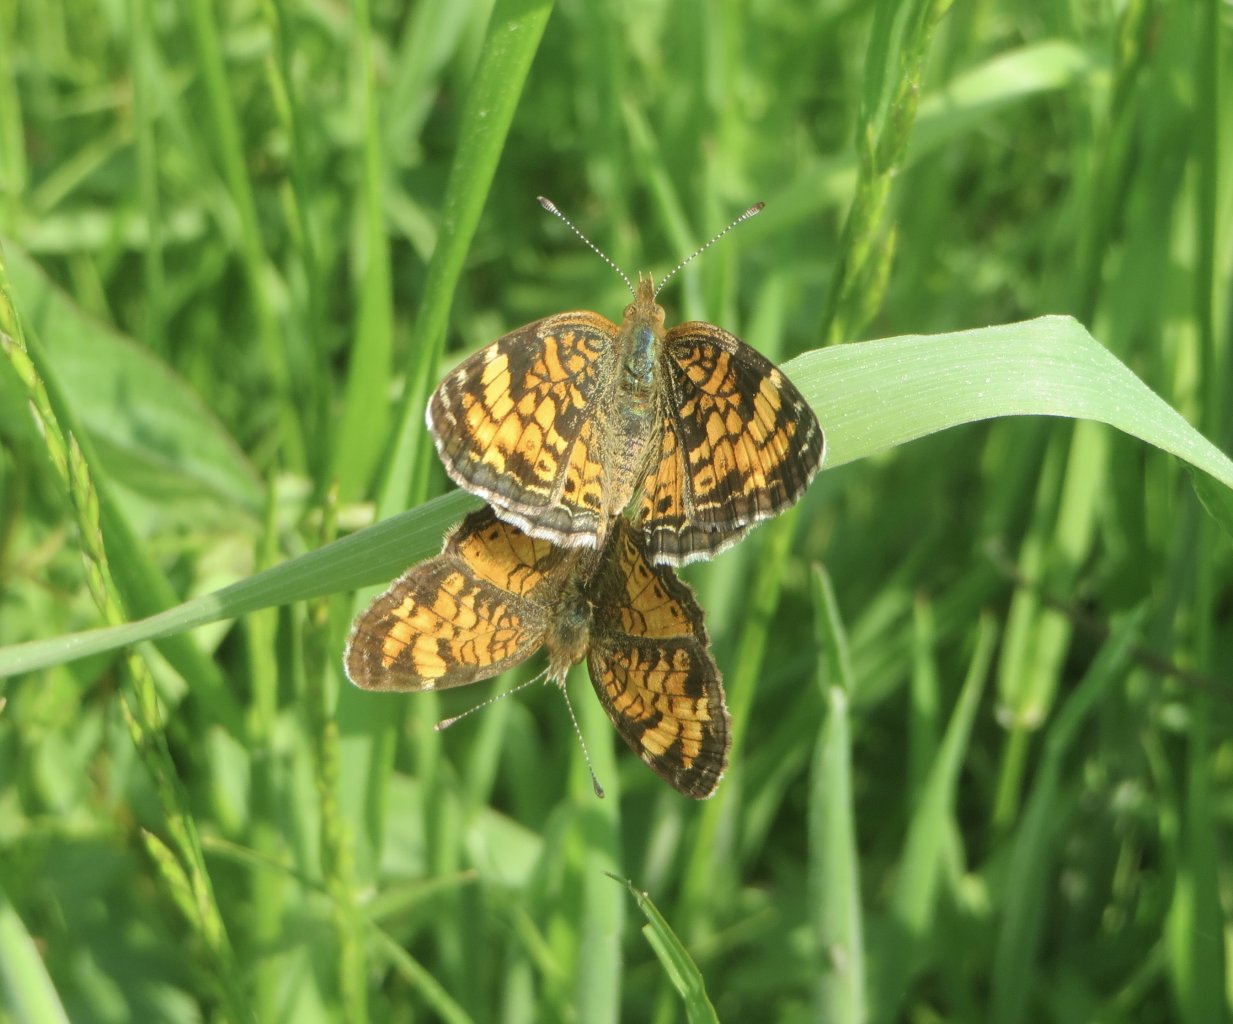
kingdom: Animalia
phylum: Arthropoda
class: Insecta
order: Lepidoptera
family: Nymphalidae
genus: Phyciodes
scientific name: Phyciodes tharos
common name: Pearl Crescent
